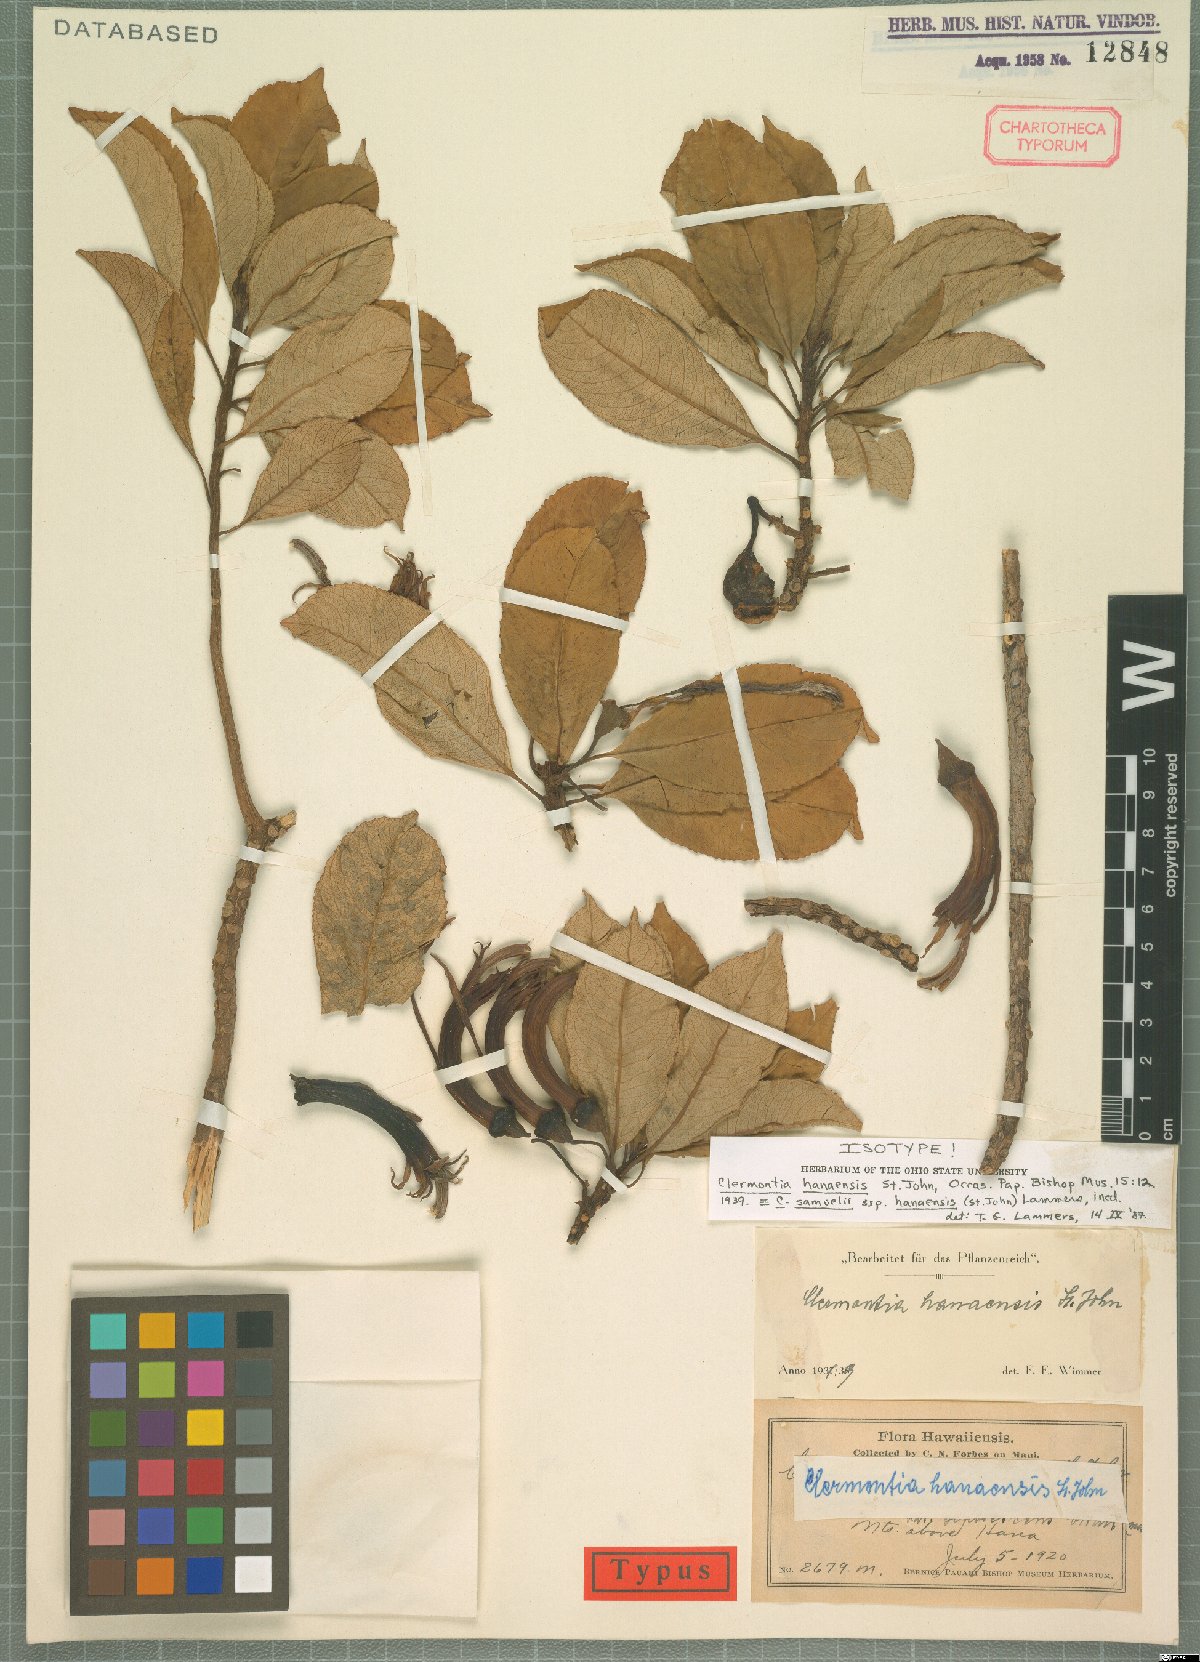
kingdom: Plantae
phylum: Tracheophyta
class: Magnoliopsida
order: Asterales
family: Campanulaceae
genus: Clermontia
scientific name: Clermontia samuelii
